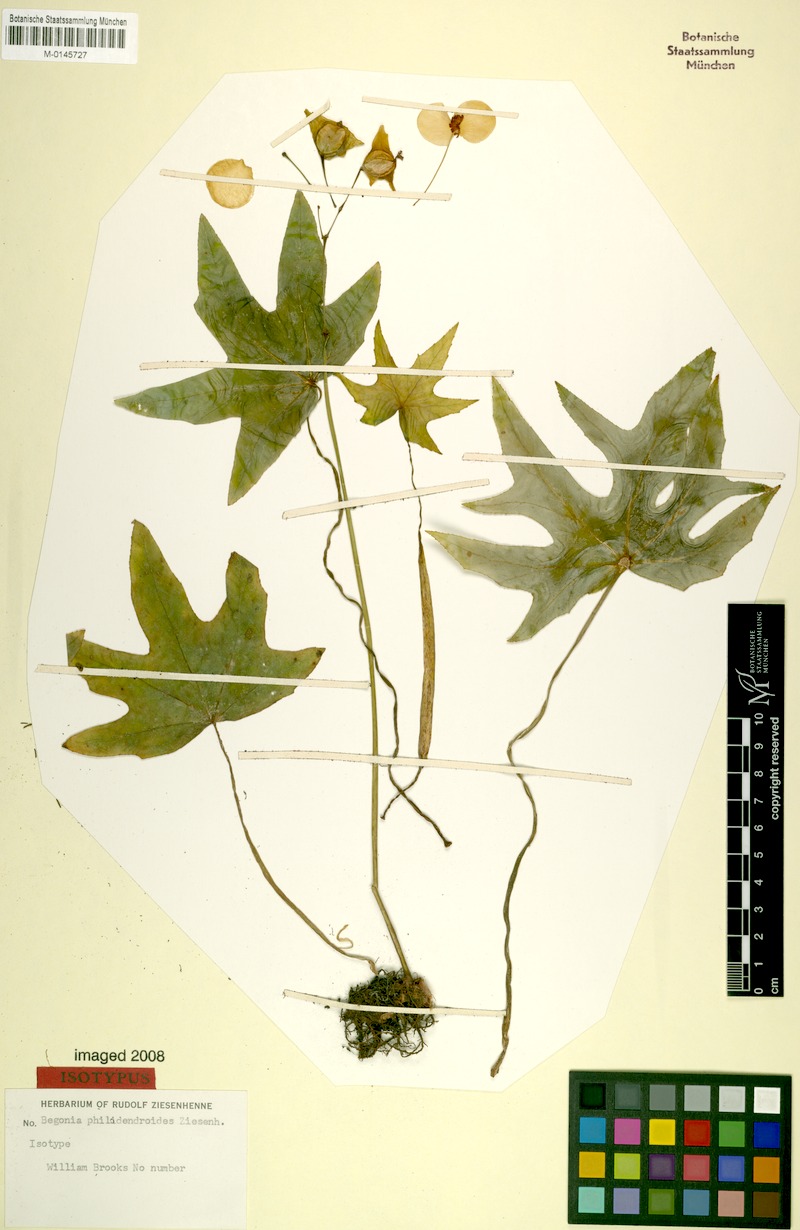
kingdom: Plantae
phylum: Tracheophyta
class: Magnoliopsida
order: Cucurbitales
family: Begoniaceae
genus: Begonia
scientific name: Begonia philodendroides
